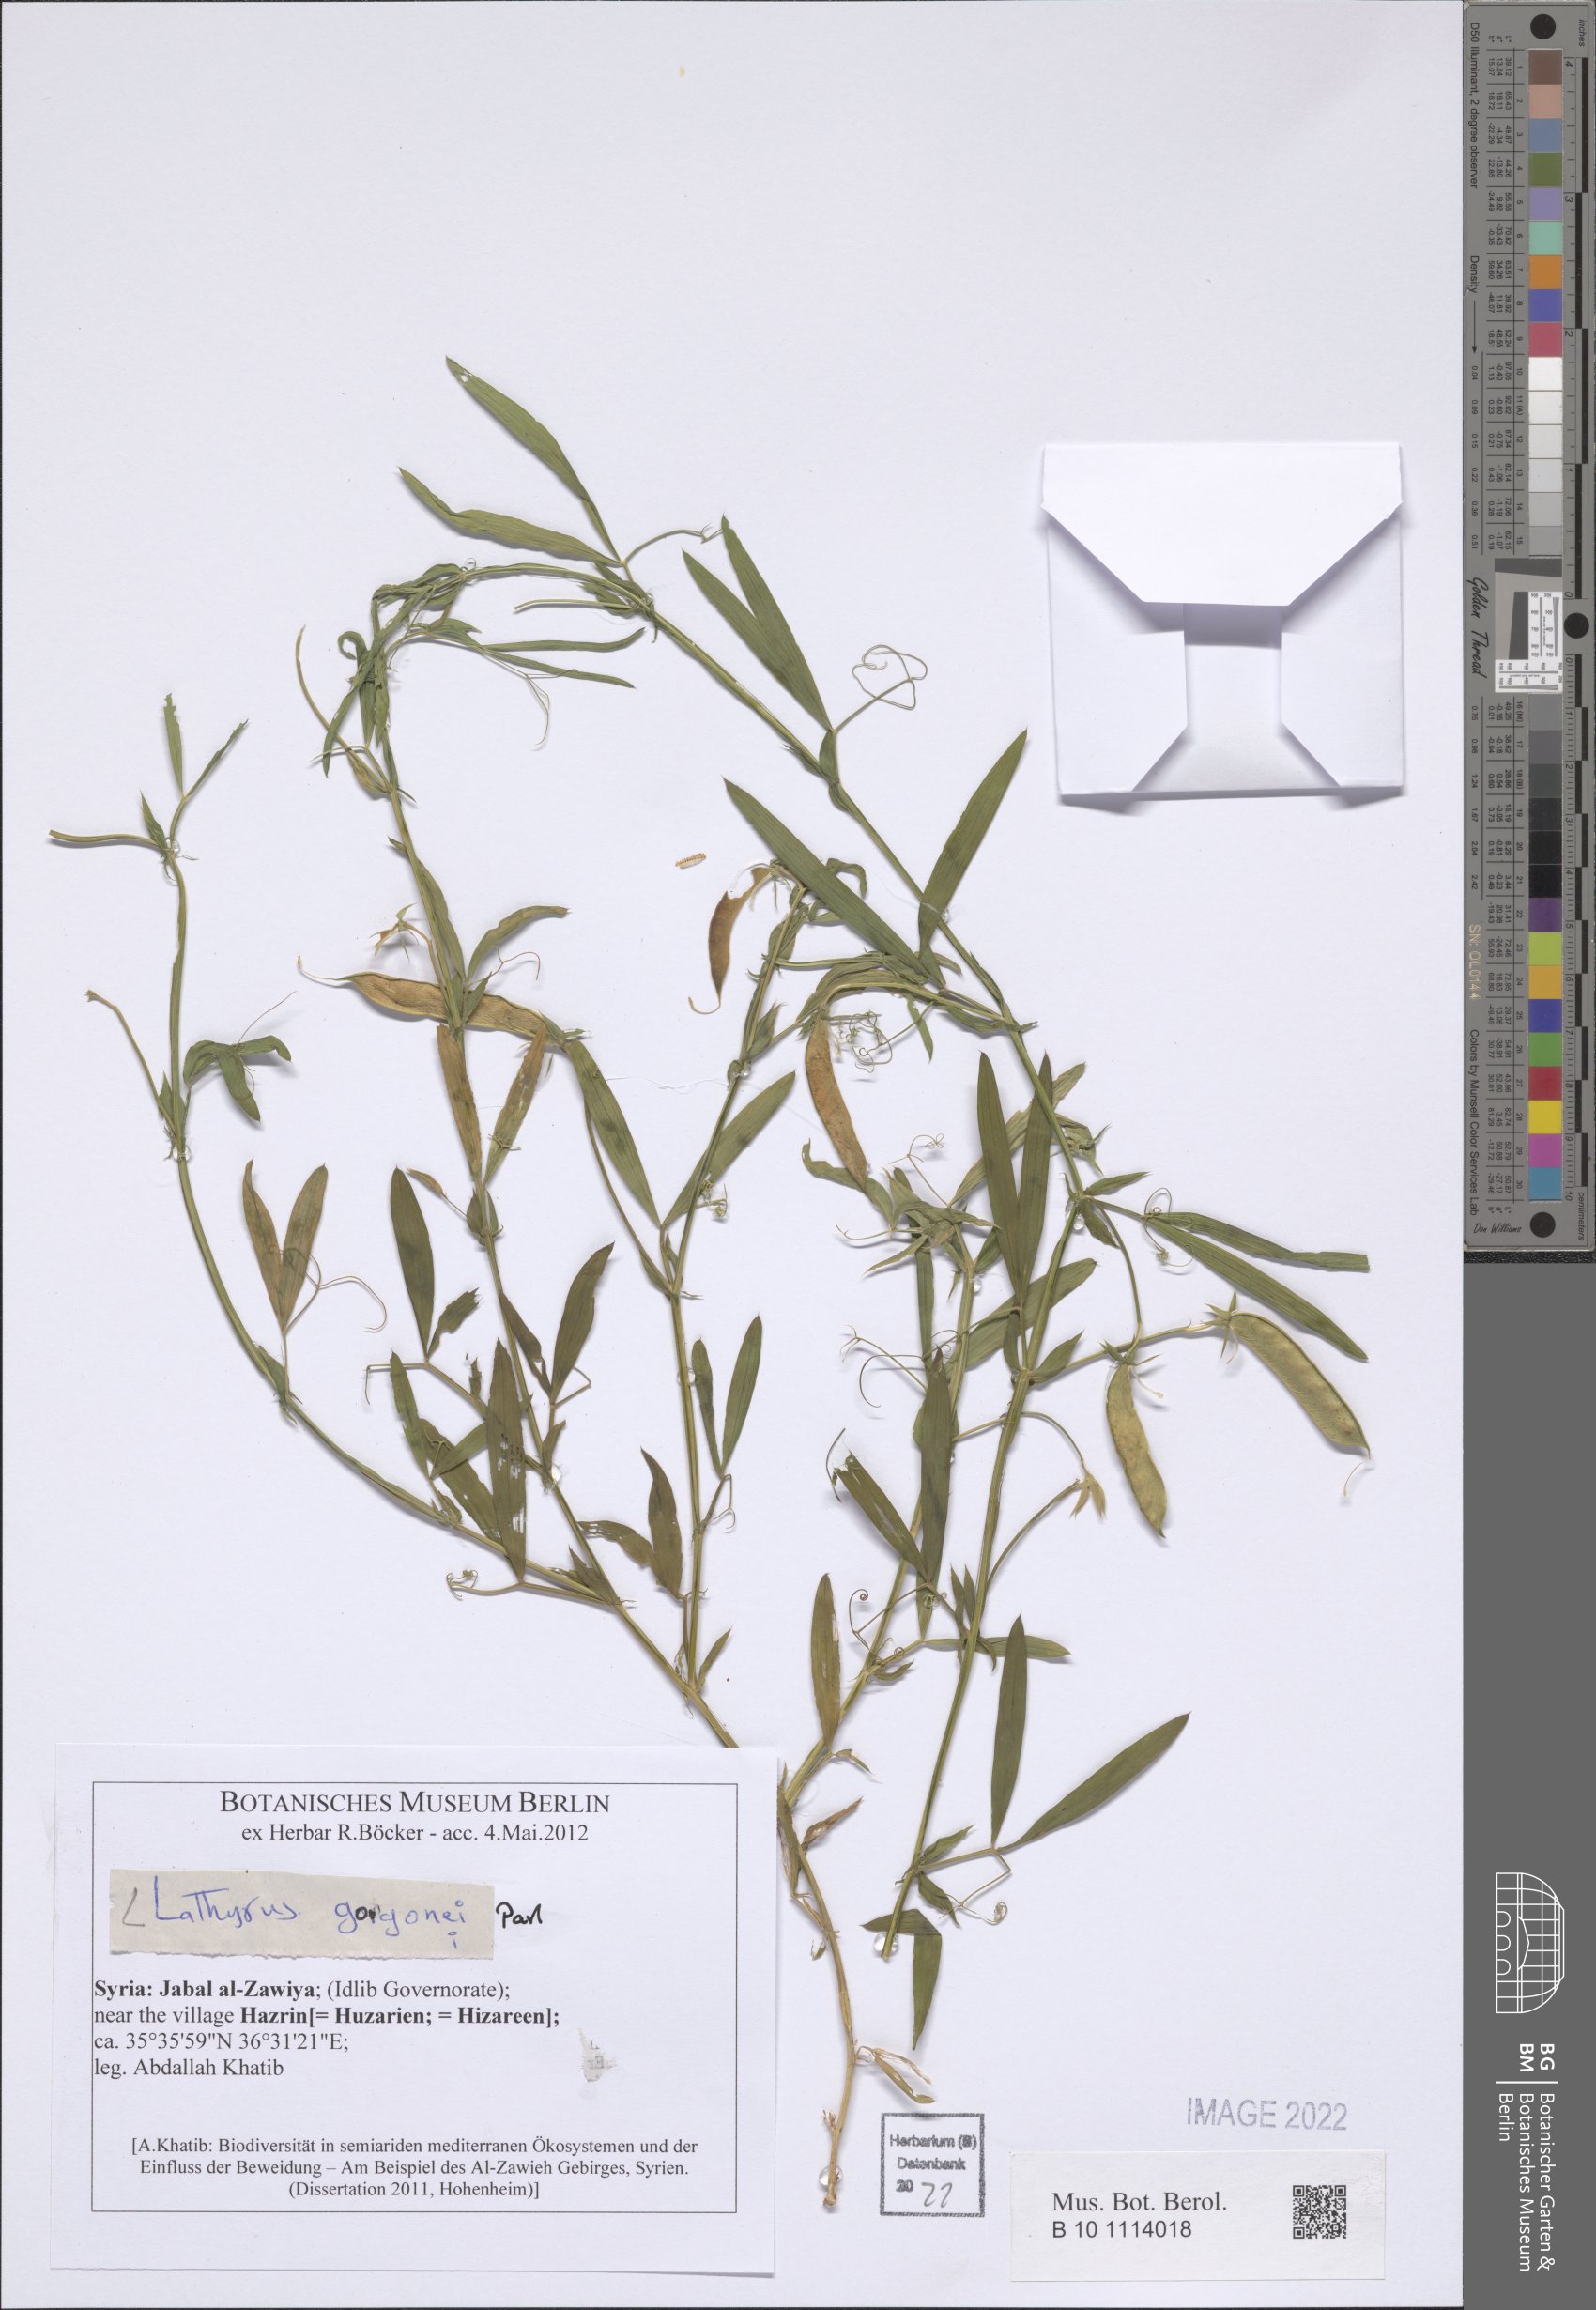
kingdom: Plantae
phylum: Tracheophyta
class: Magnoliopsida
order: Fabales
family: Fabaceae
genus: Lathyrus
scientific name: Lathyrus gorgoni
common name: Rare pea
